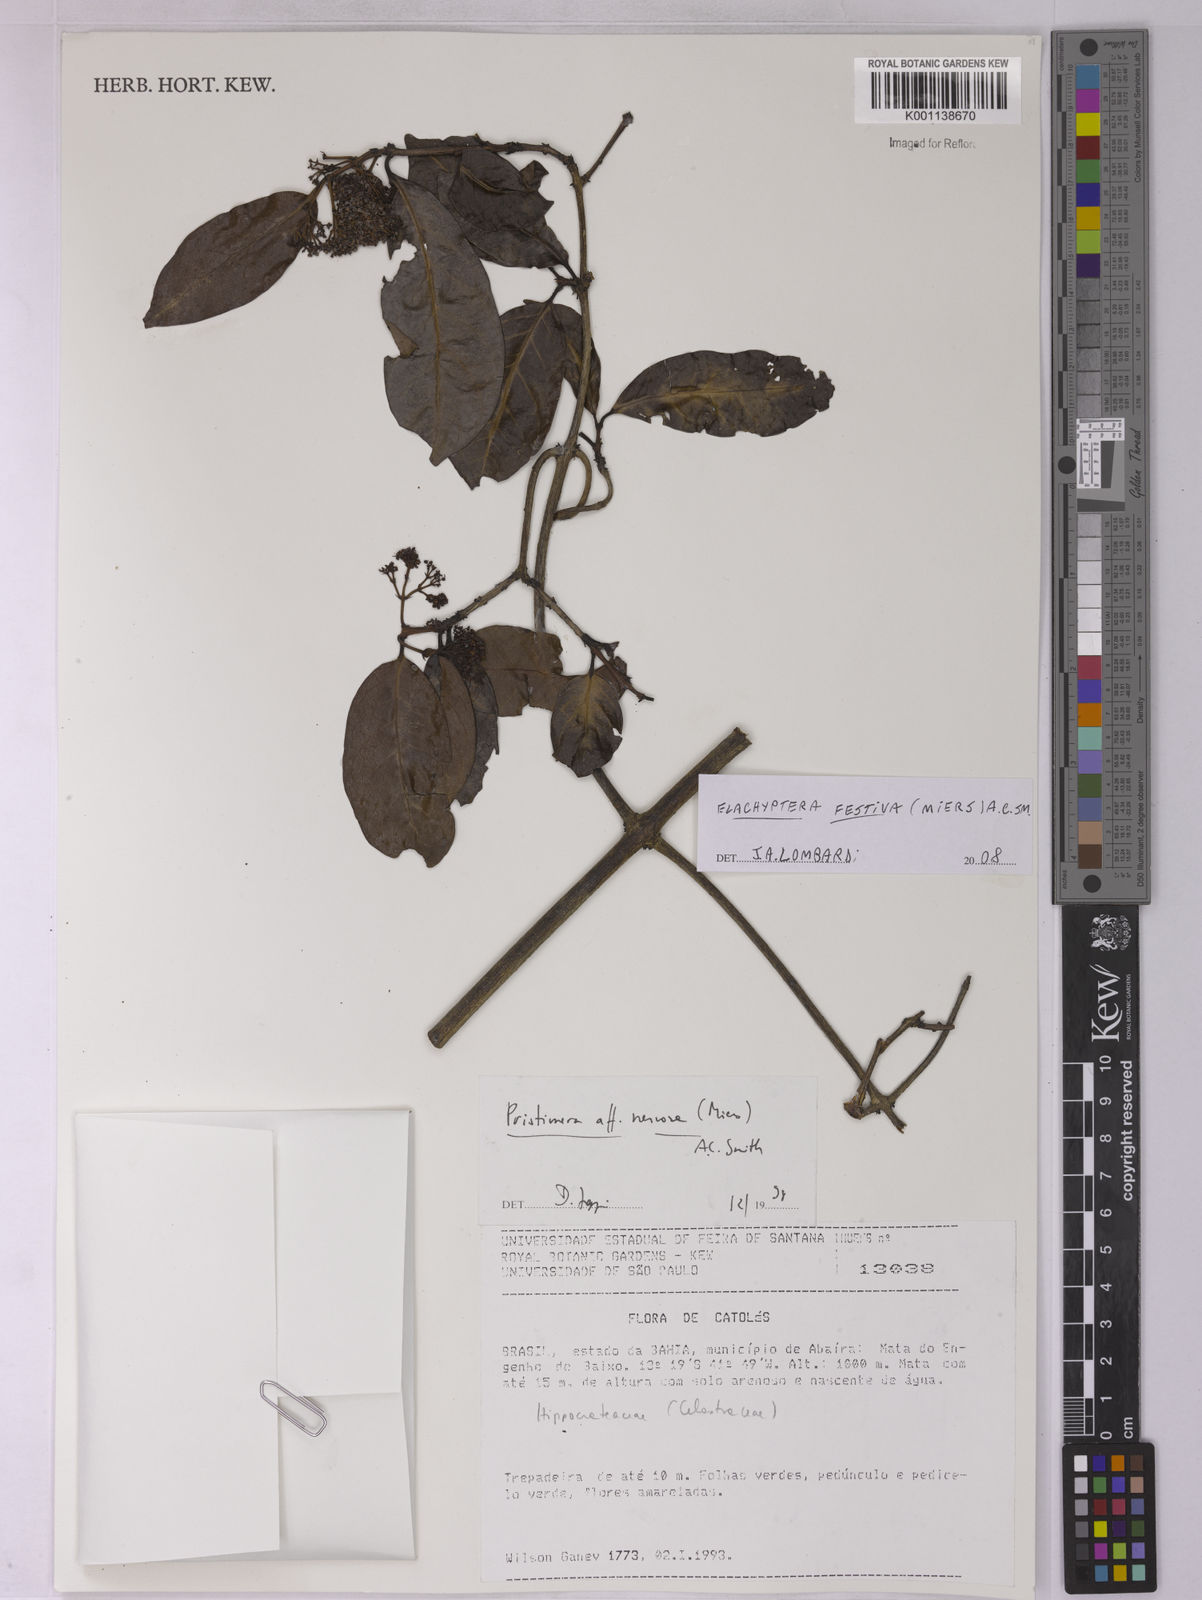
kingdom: Plantae
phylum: Tracheophyta
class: Magnoliopsida
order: Celastrales
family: Celastraceae
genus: Elachyptera
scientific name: Elachyptera festiva
